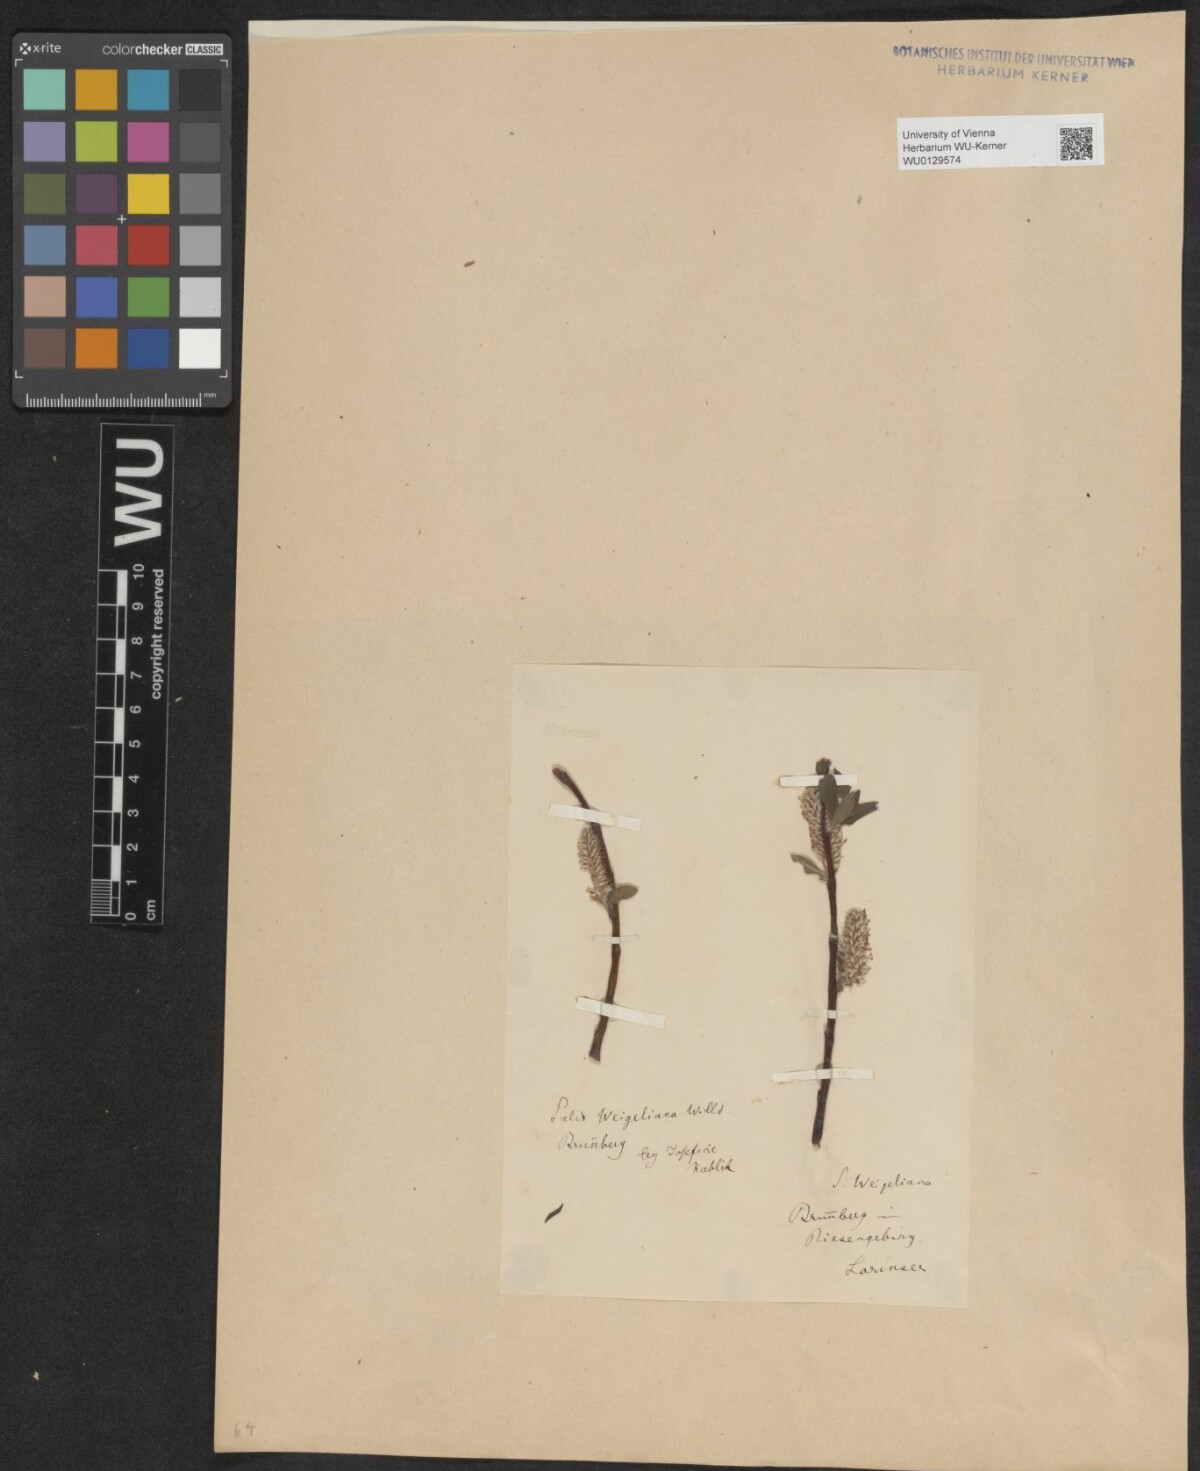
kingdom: Plantae
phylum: Tracheophyta
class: Magnoliopsida
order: Malpighiales
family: Salicaceae
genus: Salix
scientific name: Salix bicolor
